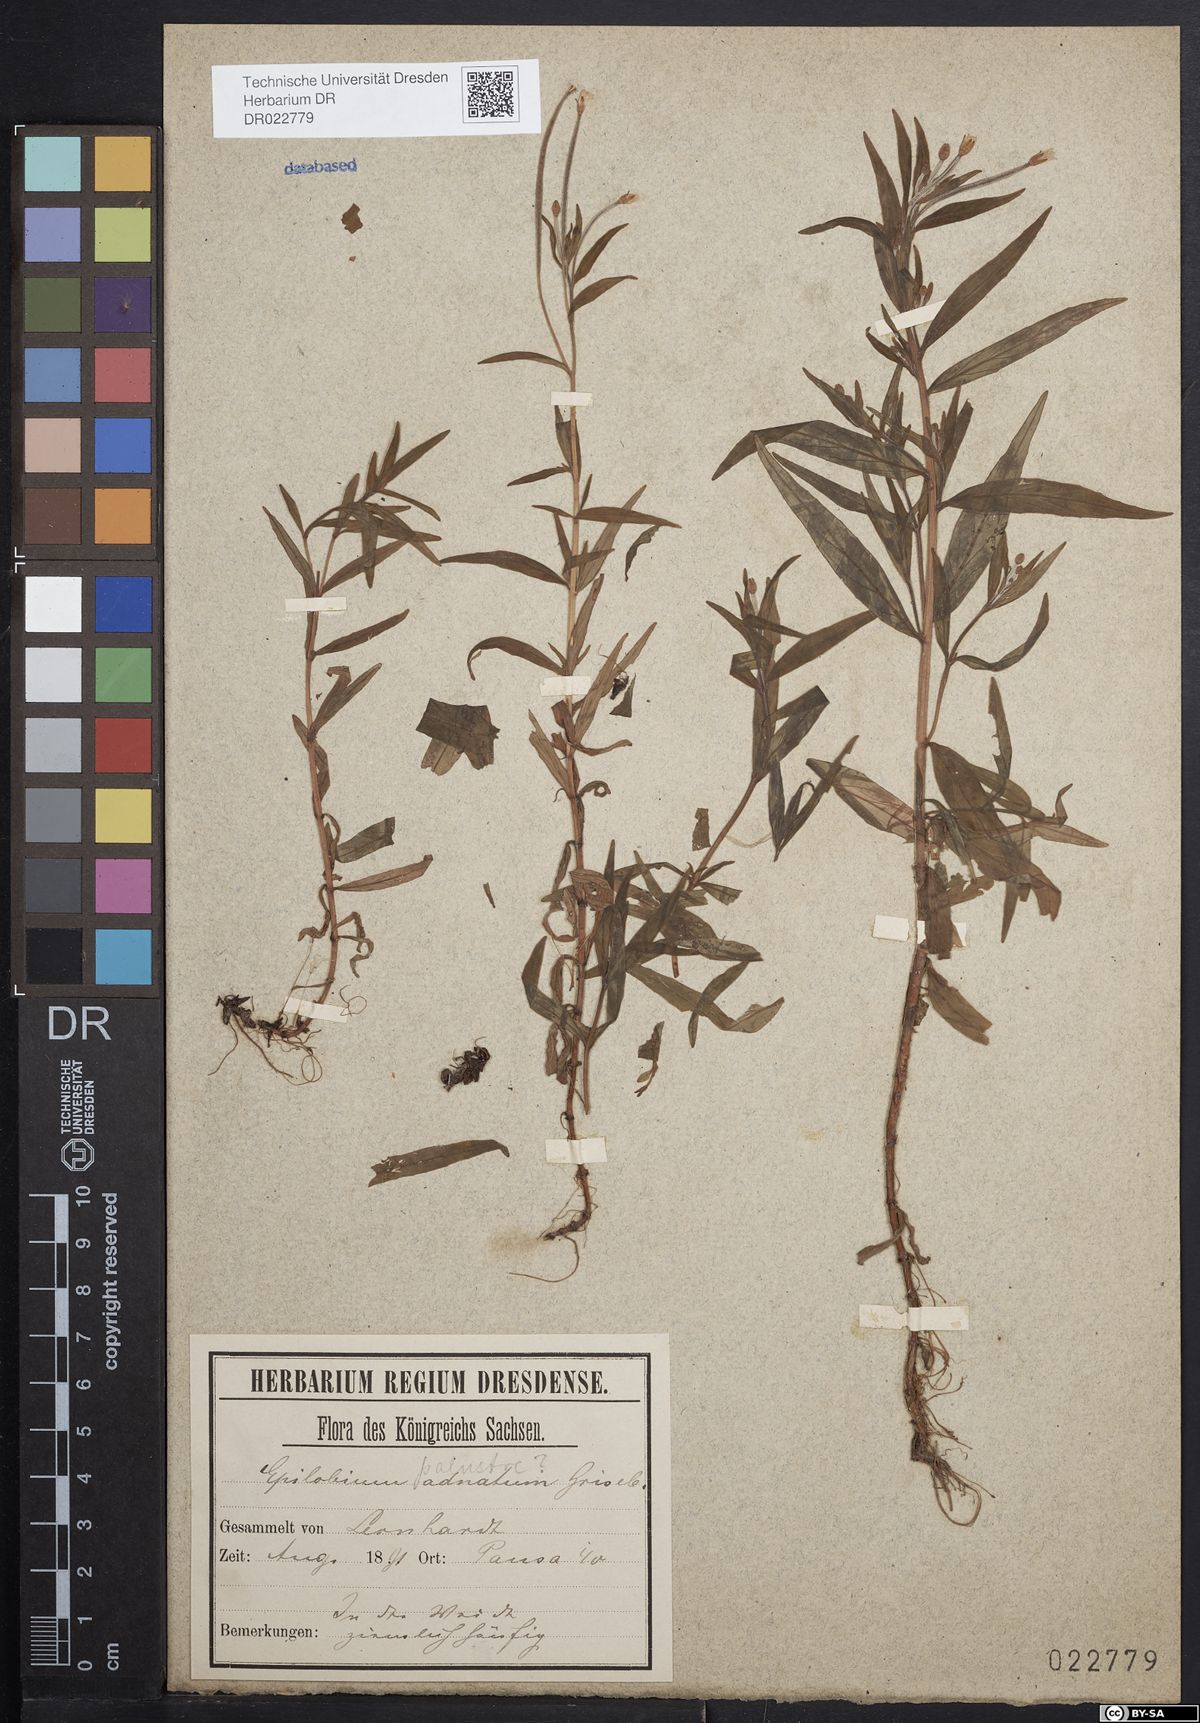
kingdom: Plantae
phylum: Tracheophyta
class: Magnoliopsida
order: Myrtales
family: Onagraceae
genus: Epilobium
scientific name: Epilobium palustre
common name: Marsh willowherb
